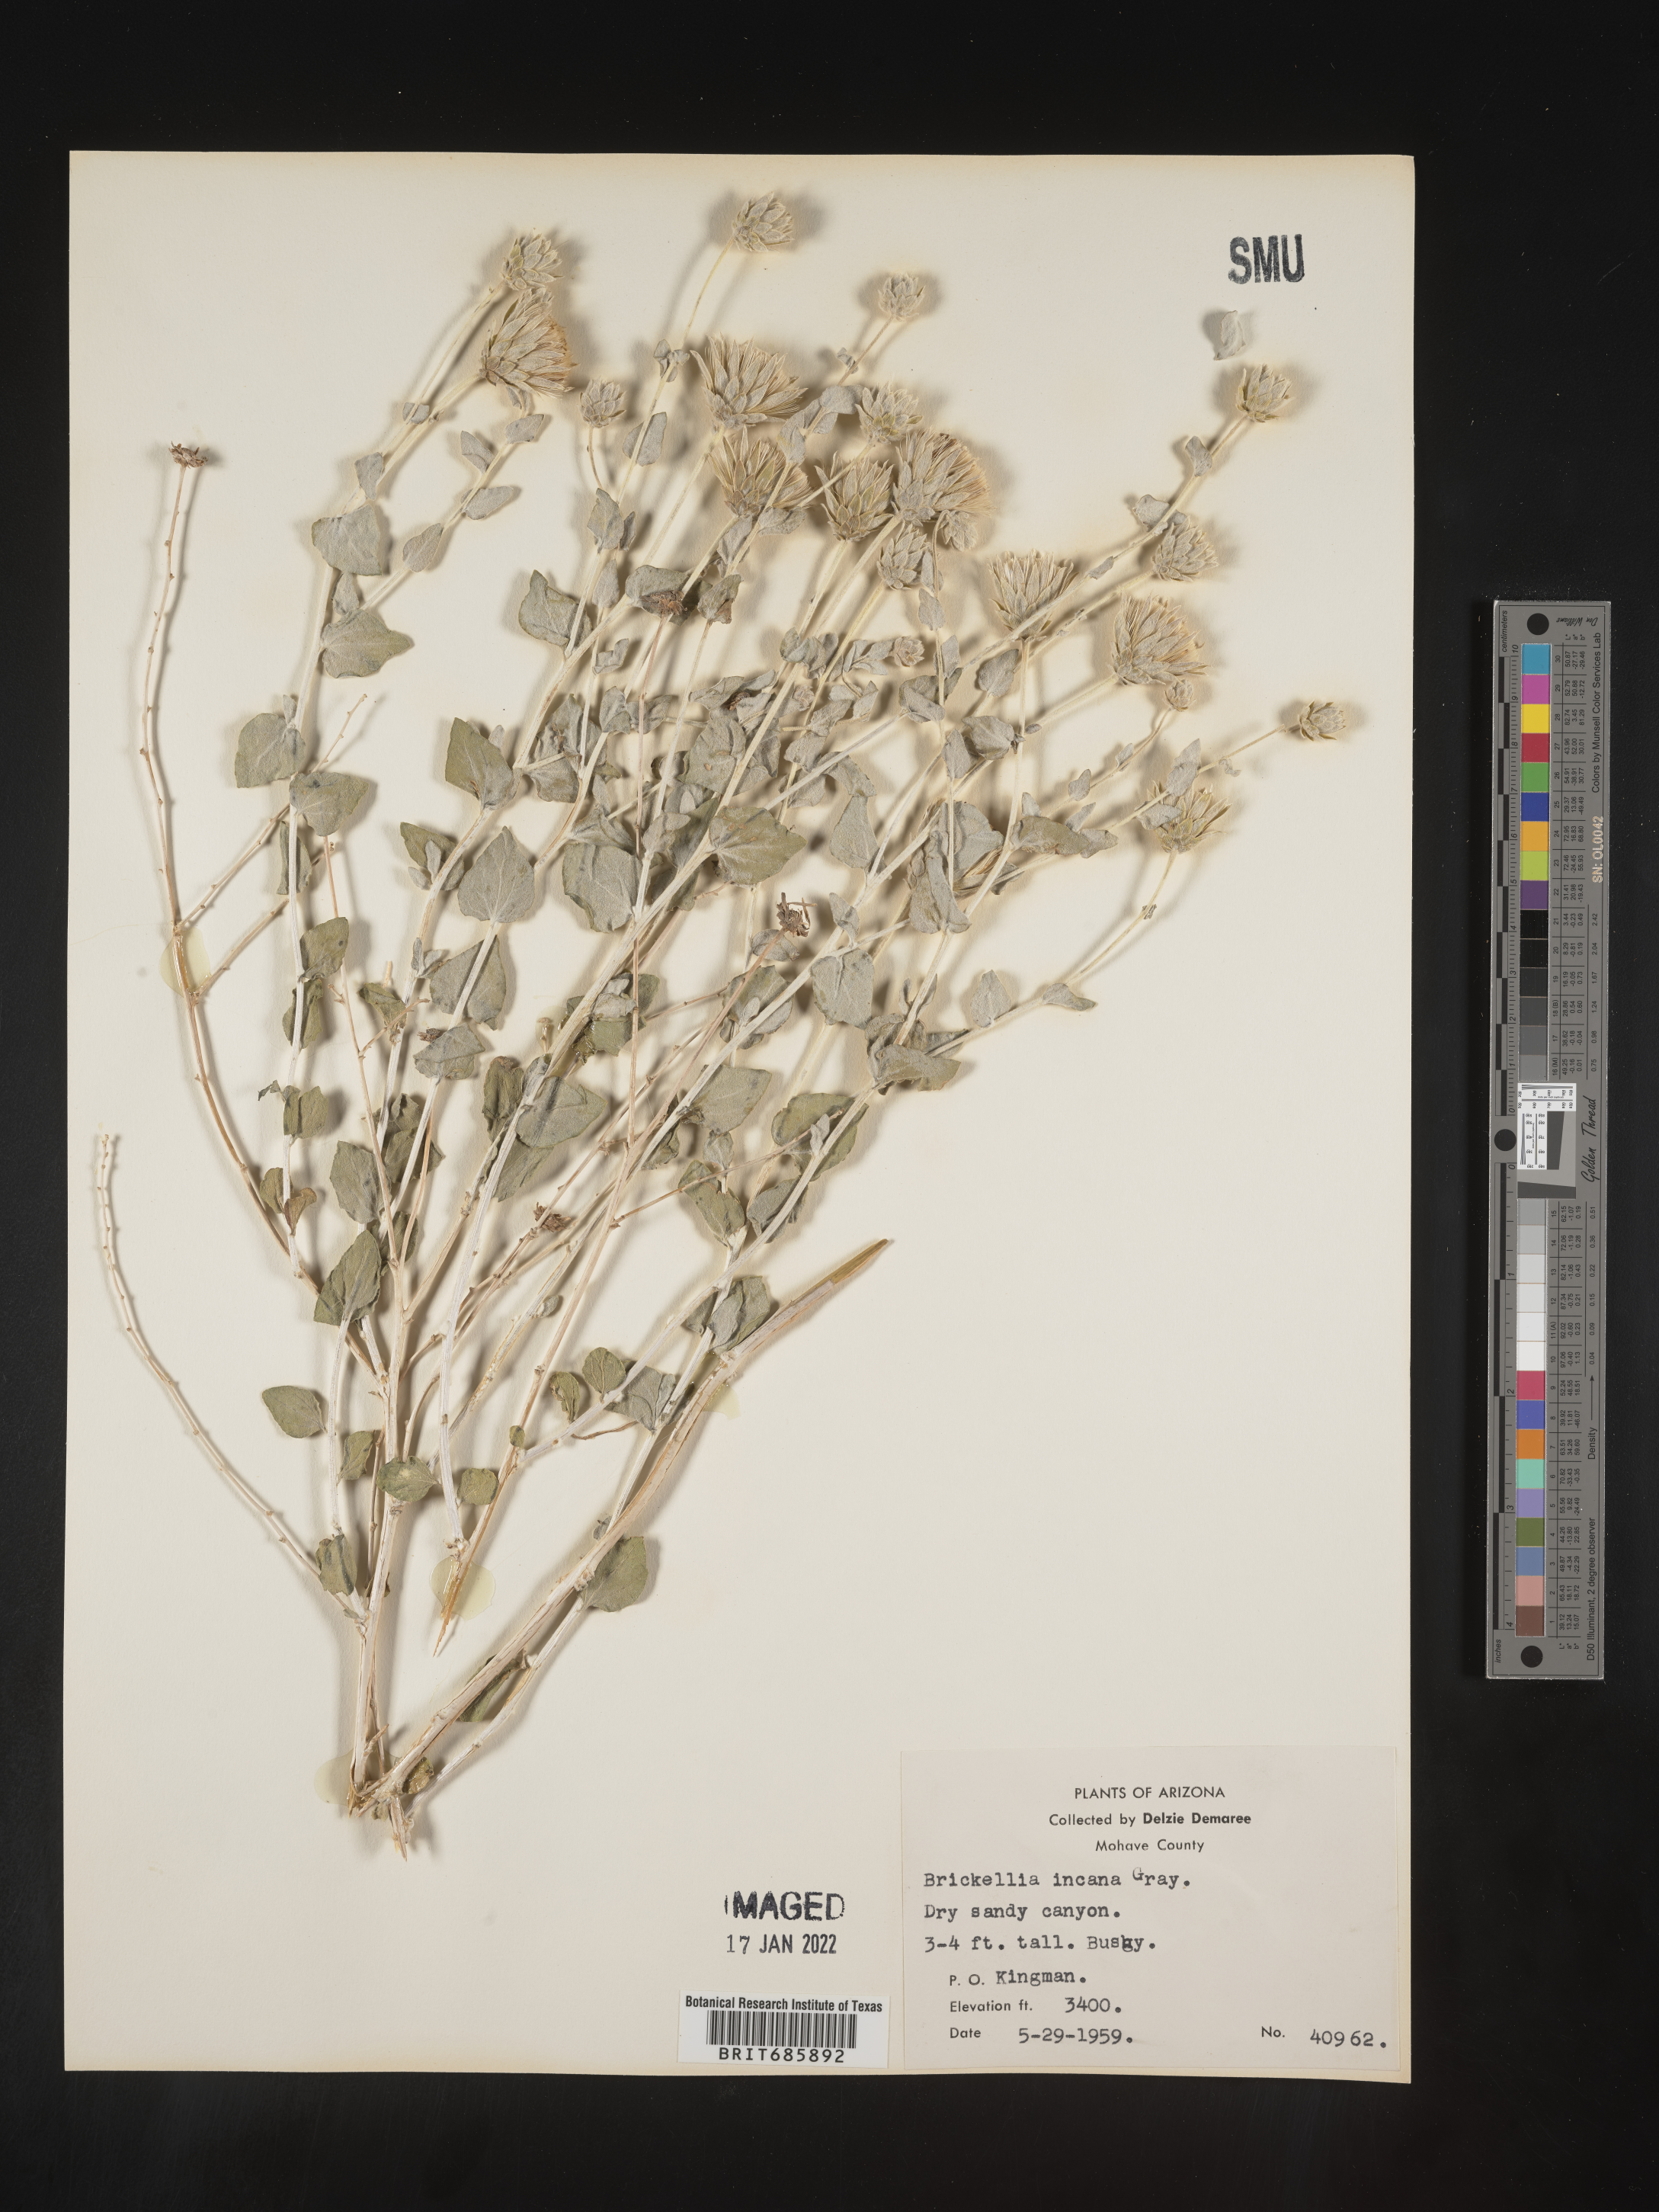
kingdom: Plantae
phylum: Tracheophyta
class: Magnoliopsida
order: Asterales
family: Asteraceae
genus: Brickellia
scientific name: Brickellia incana
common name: Woolly brickelbush
